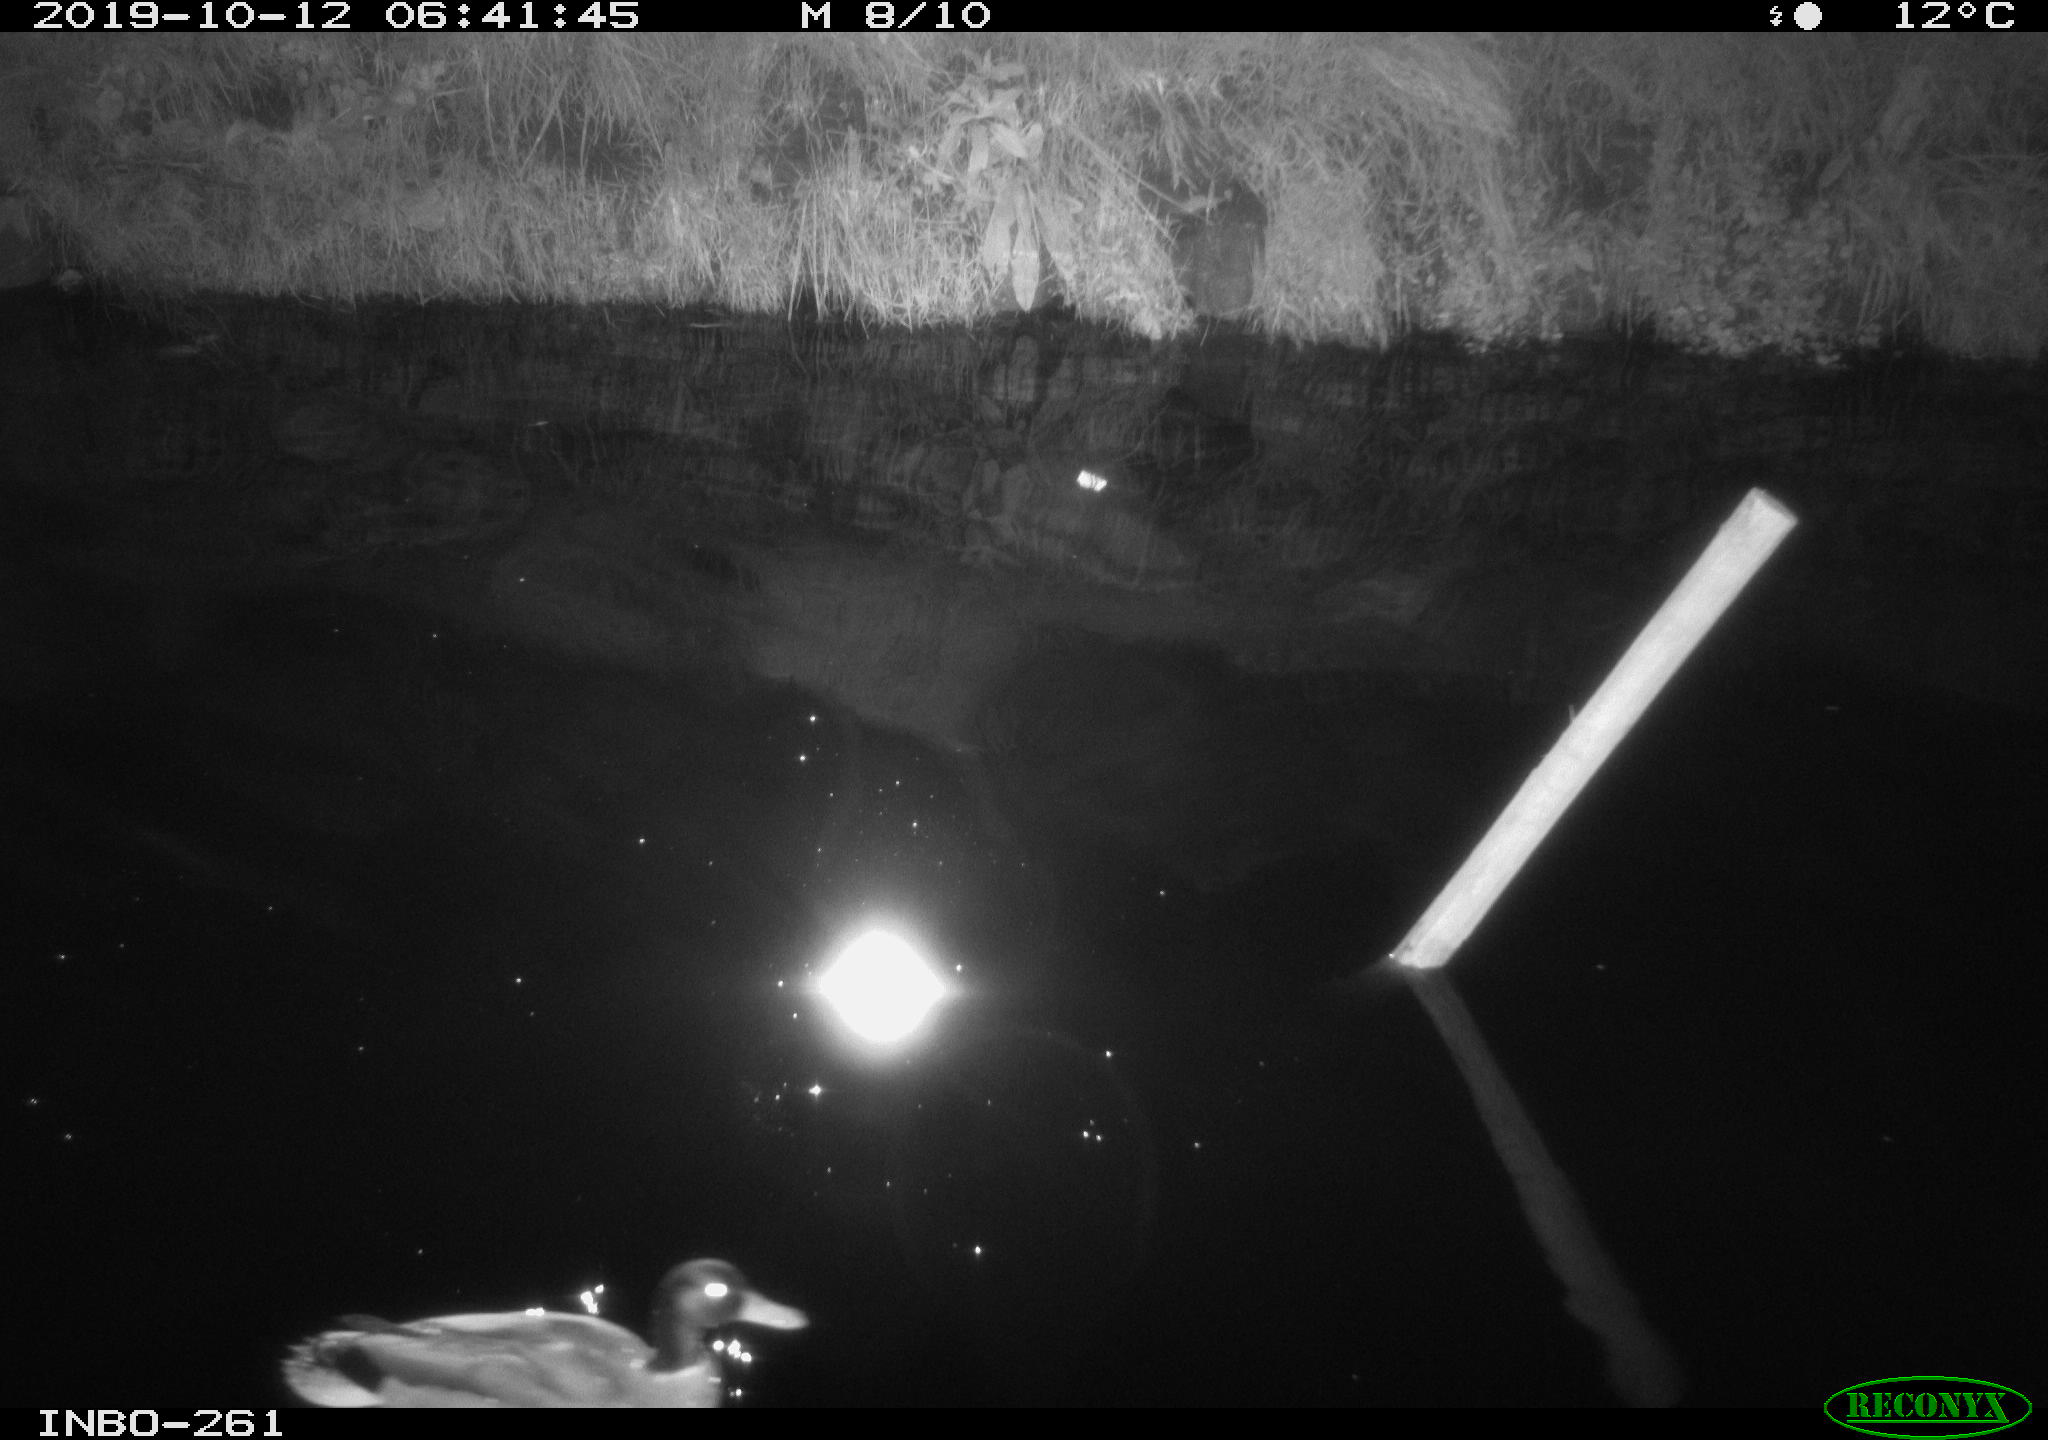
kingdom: Animalia
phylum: Chordata
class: Aves
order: Anseriformes
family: Anatidae
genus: Anas
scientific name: Anas platyrhynchos
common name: Mallard
